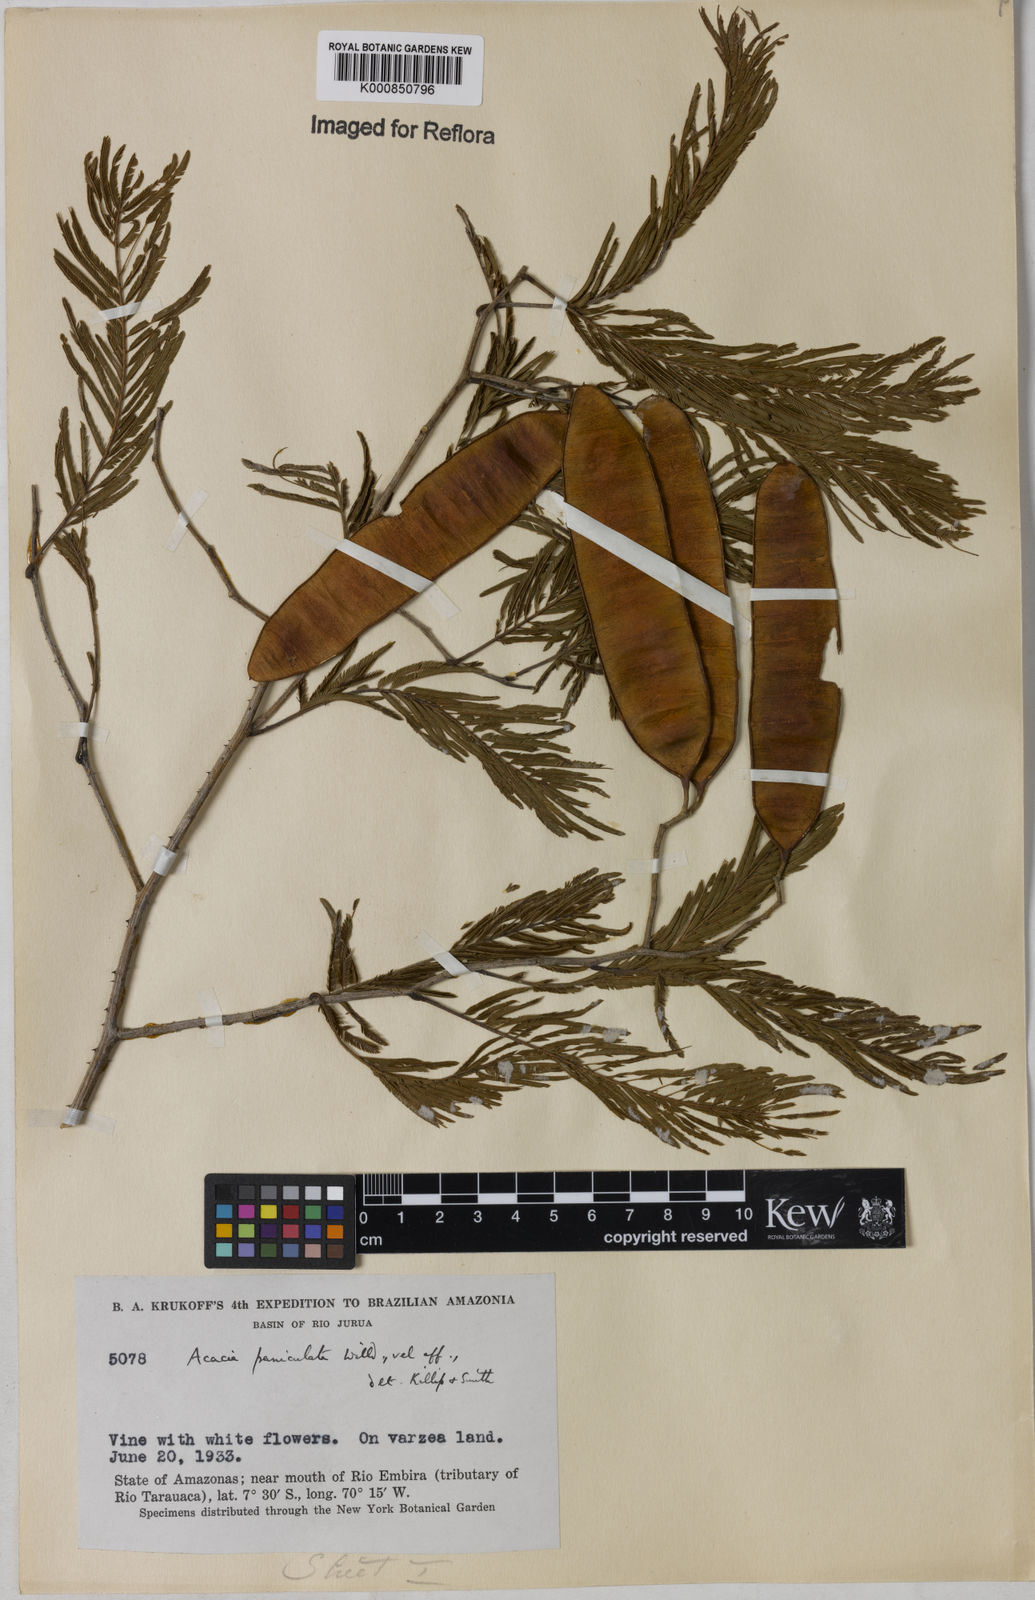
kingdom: Plantae
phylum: Tracheophyta
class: Magnoliopsida
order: Fabales
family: Fabaceae
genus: Senegalia
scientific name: Senegalia tenuifolia
